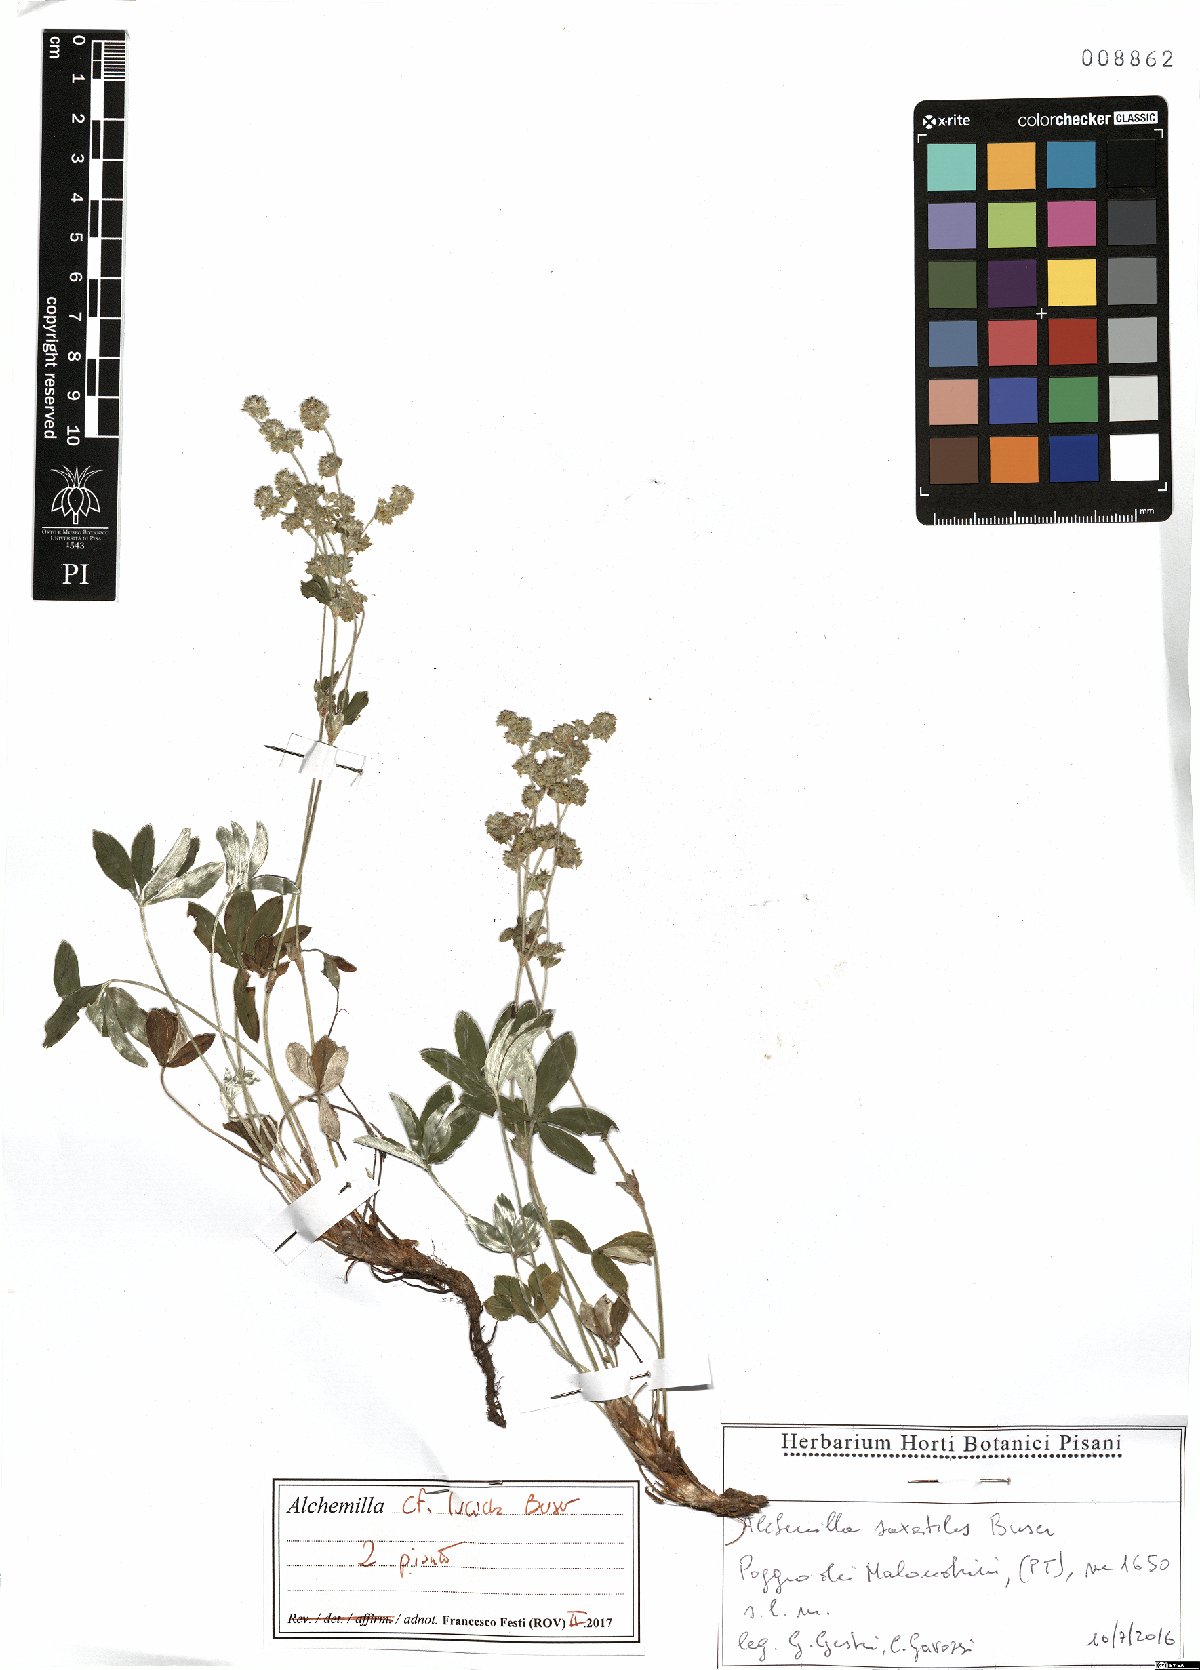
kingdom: Plantae
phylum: Tracheophyta
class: Magnoliopsida
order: Rosales
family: Rosaceae
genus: Alchemilla
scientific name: Alchemilla lucida
